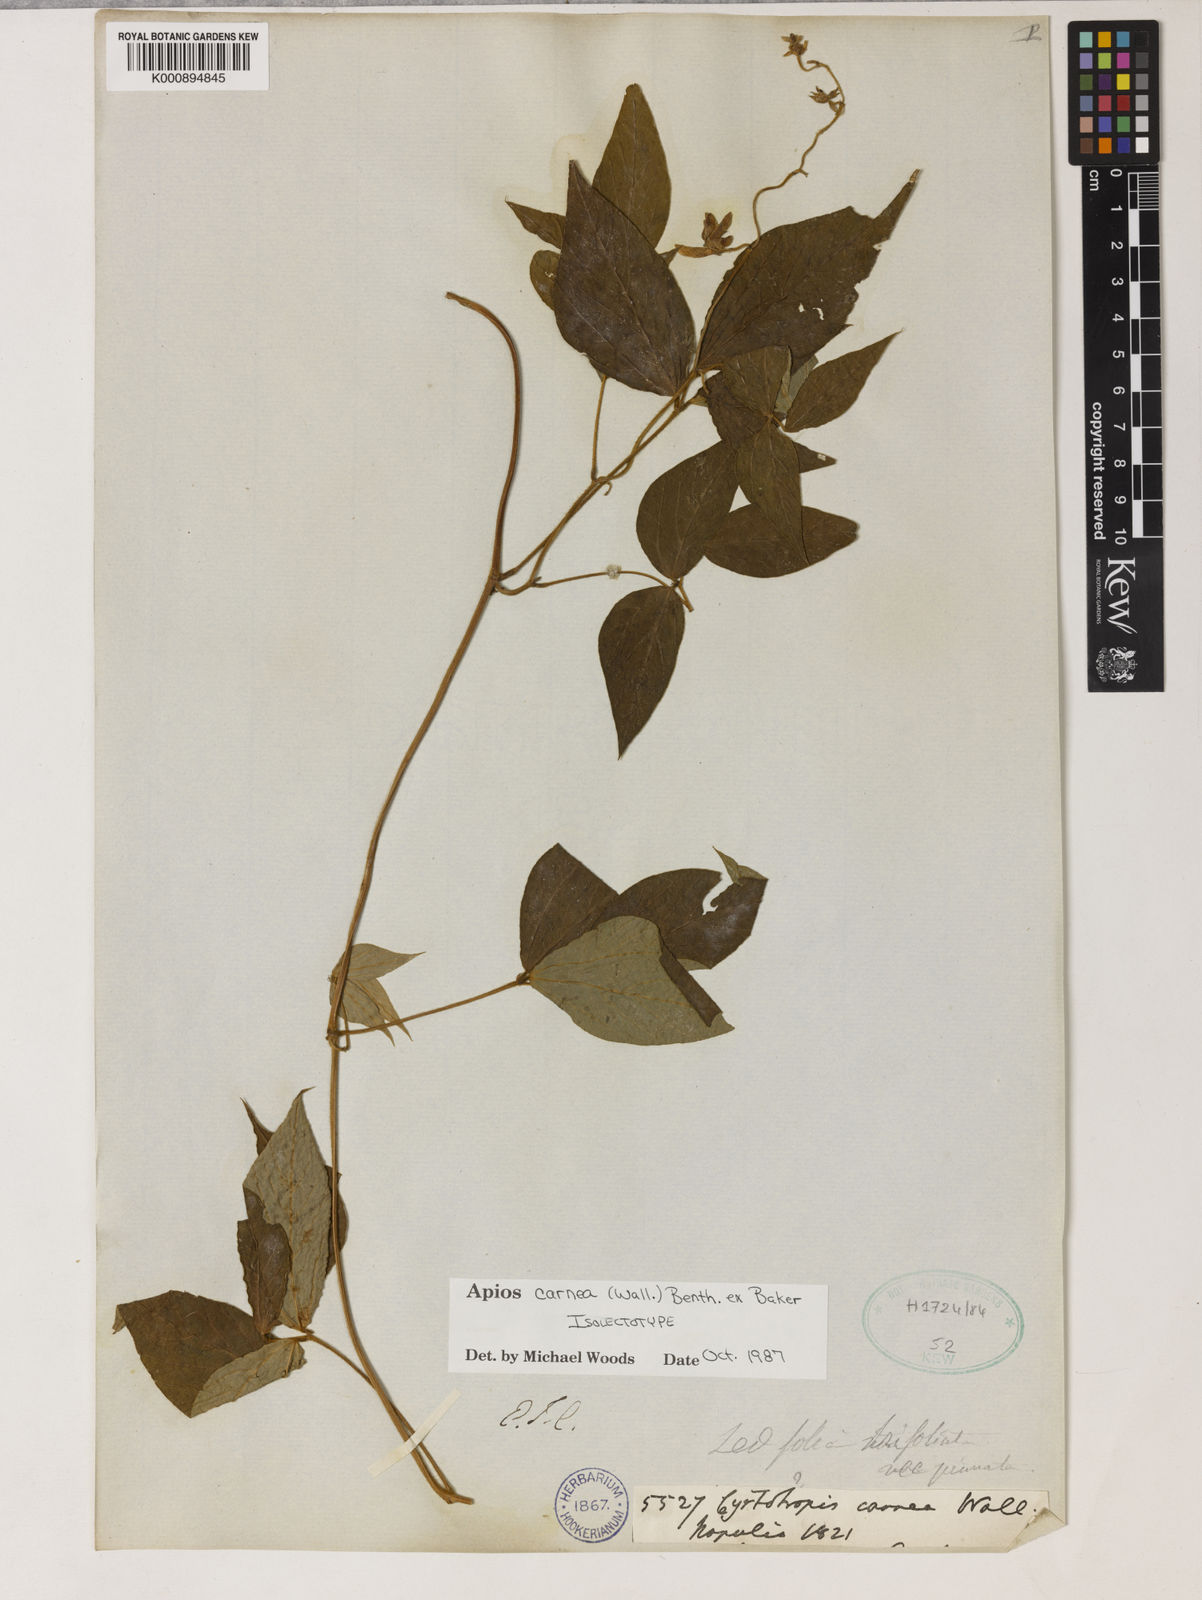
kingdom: Plantae
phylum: Tracheophyta
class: Magnoliopsida
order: Fabales
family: Fabaceae
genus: Apios
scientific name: Apios carnea
